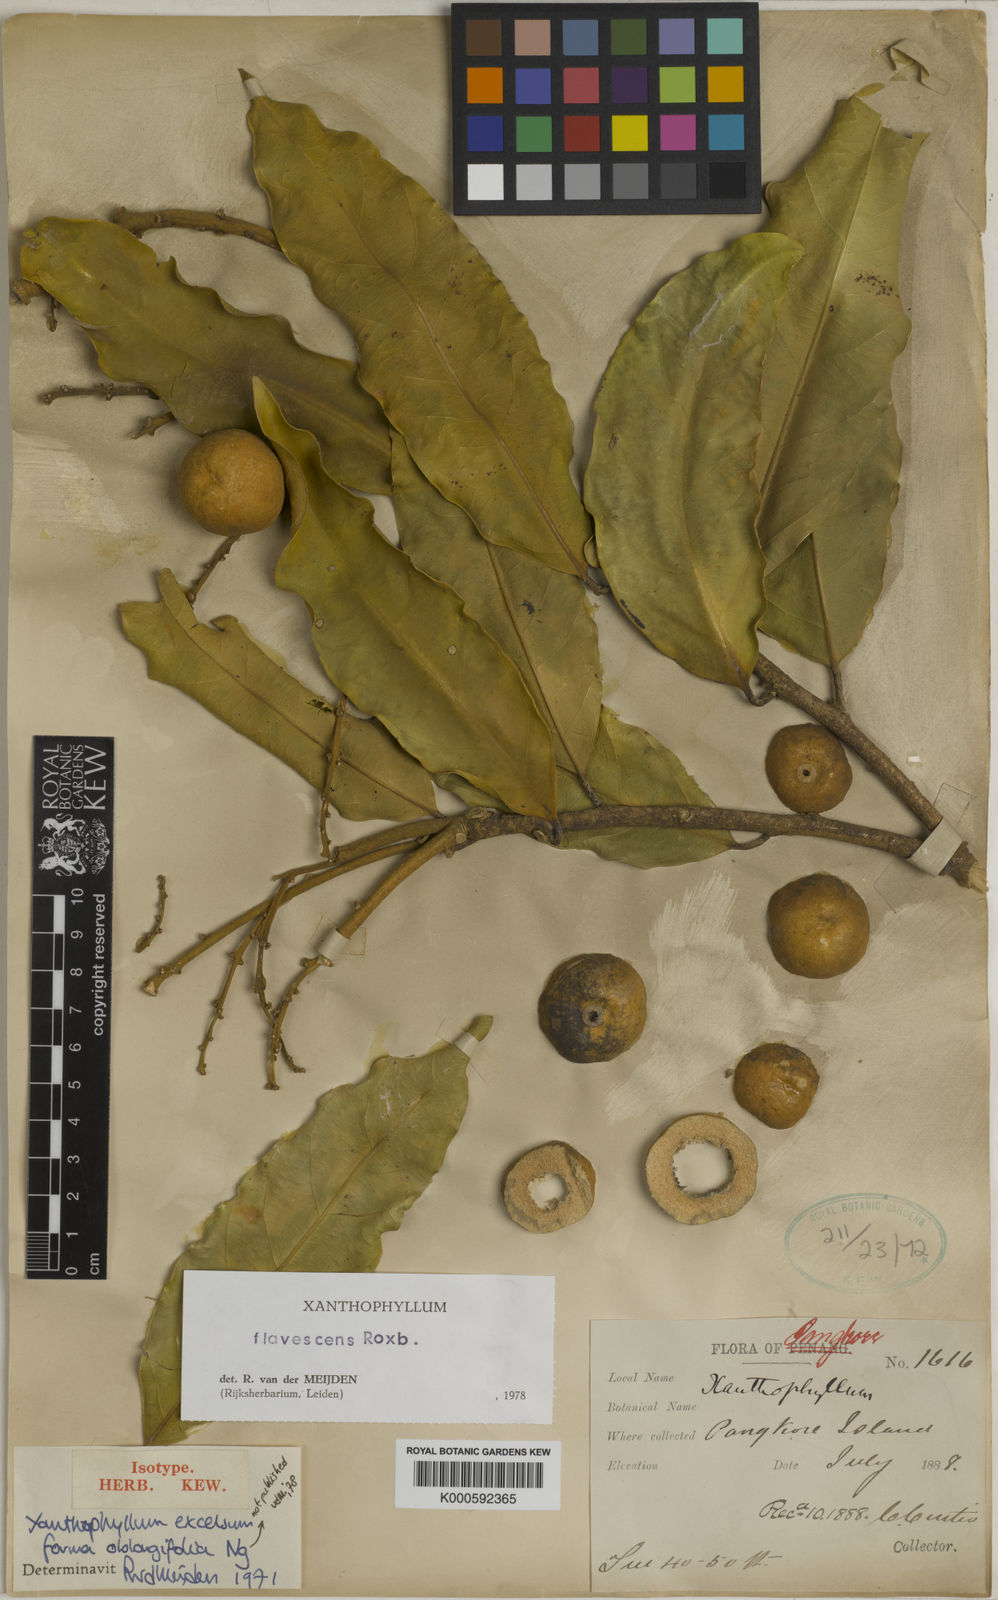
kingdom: Plantae
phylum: Tracheophyta
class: Magnoliopsida
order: Fabales
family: Polygalaceae
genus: Xanthophyllum
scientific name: Xanthophyllum flavescens
